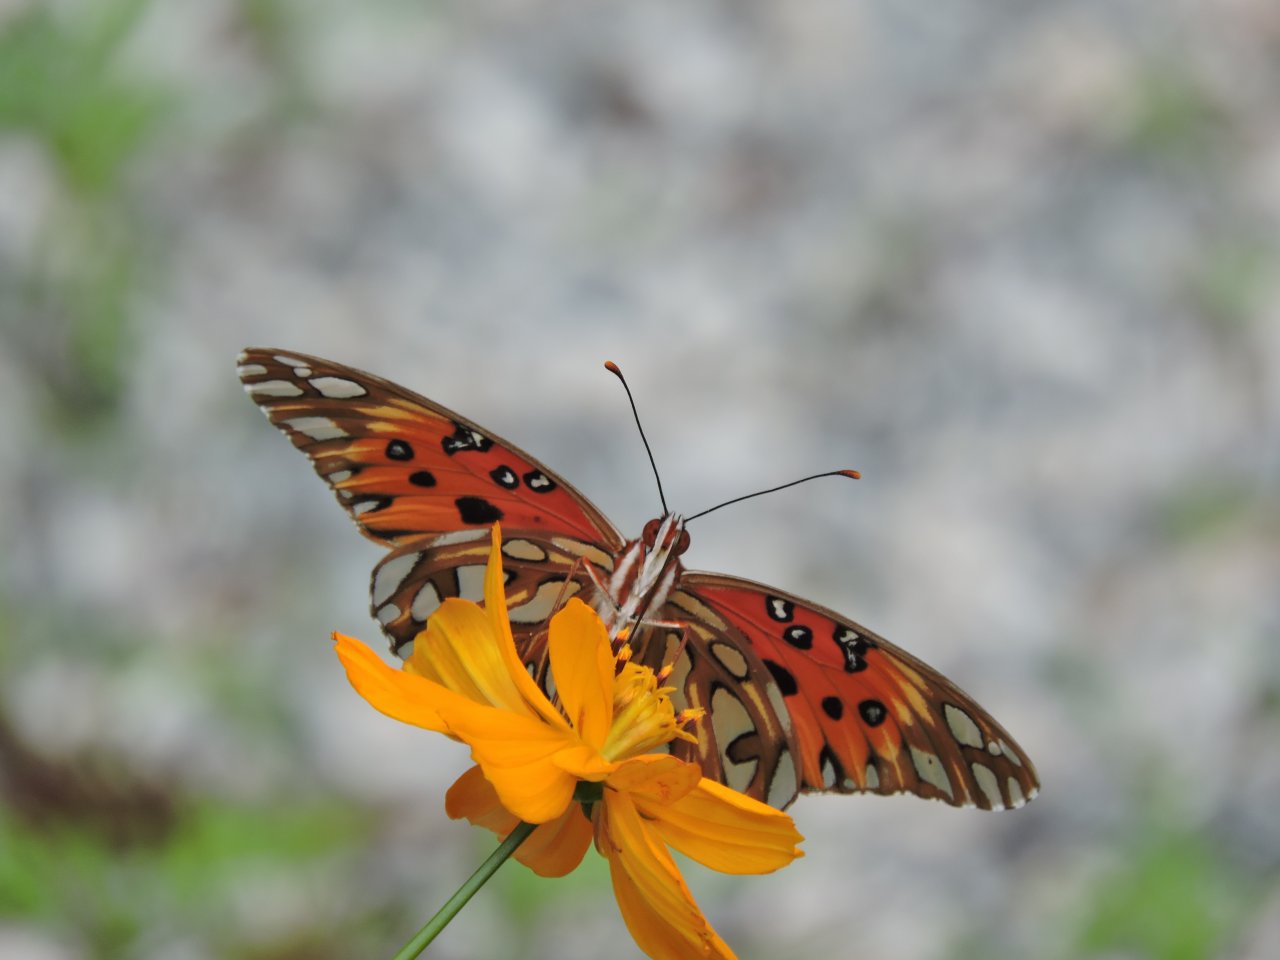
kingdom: Animalia
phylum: Arthropoda
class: Insecta
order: Lepidoptera
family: Nymphalidae
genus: Dione
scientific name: Dione vanillae
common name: Gulf Fritillary
